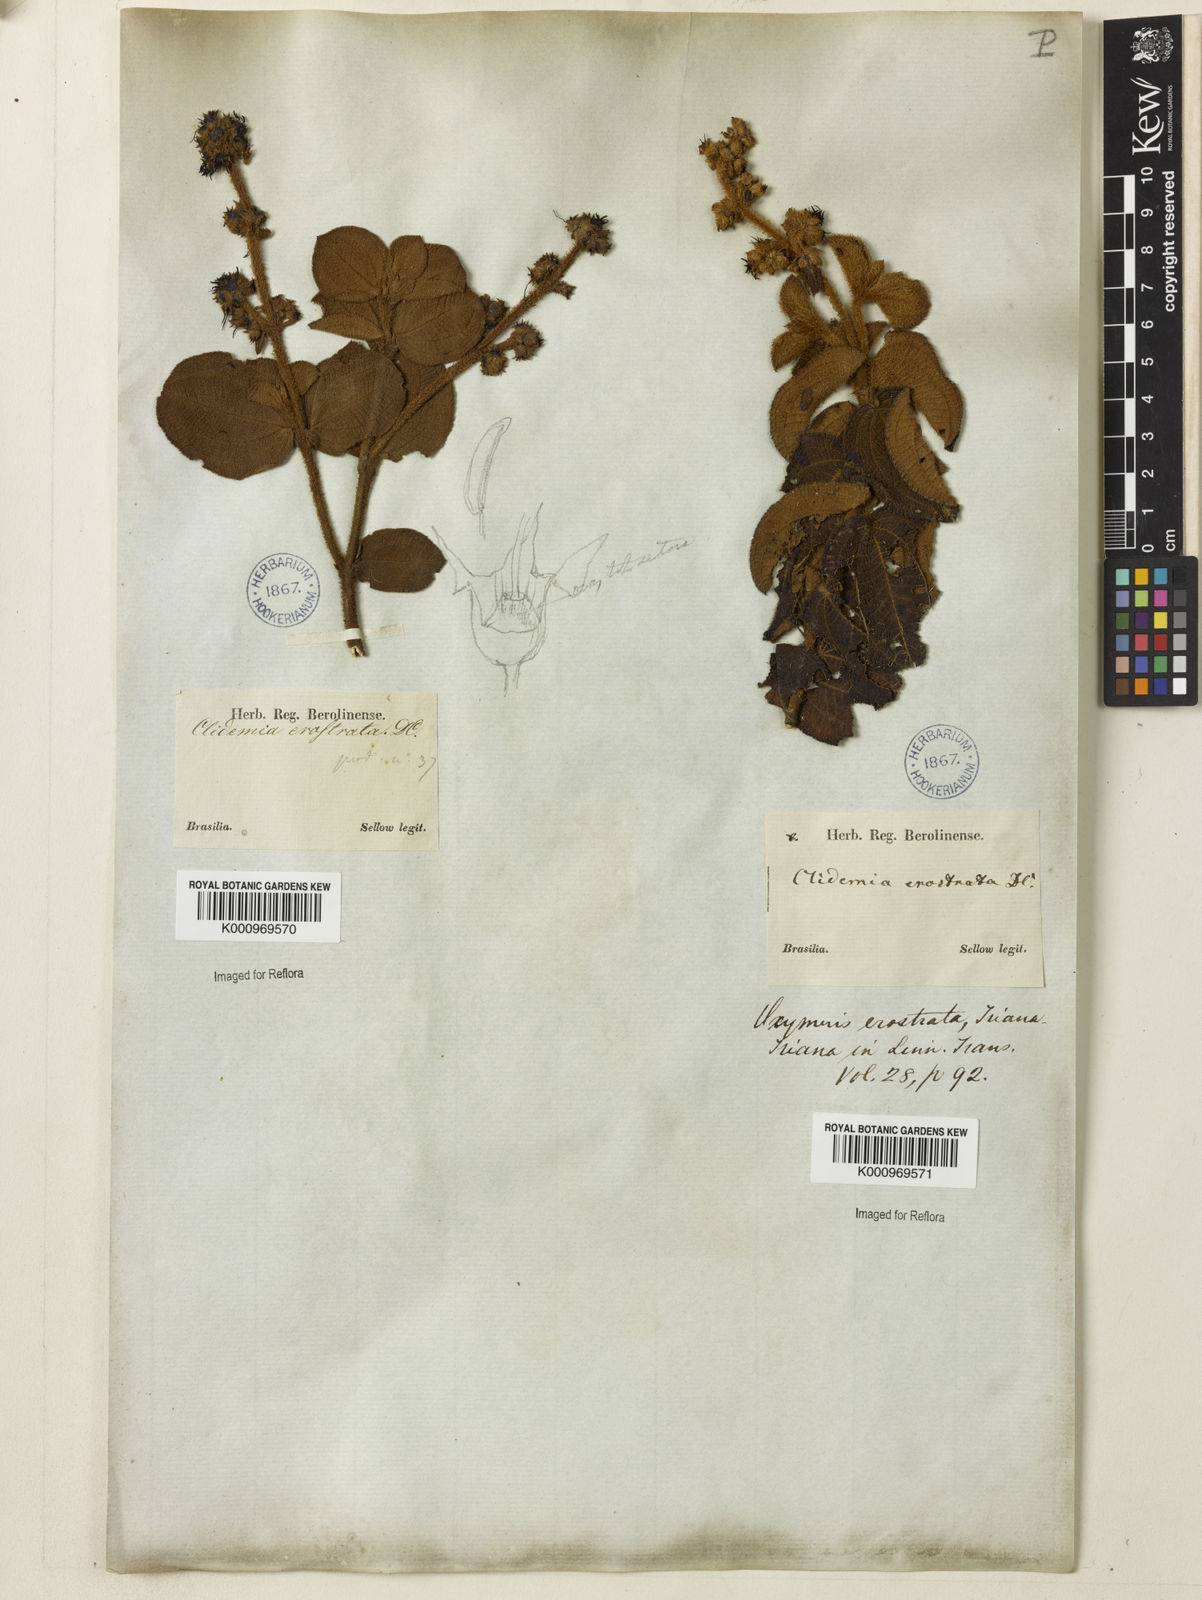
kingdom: Plantae
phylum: Tracheophyta
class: Magnoliopsida
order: Myrtales
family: Melastomataceae
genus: Miconia
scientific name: Miconia erostrata
